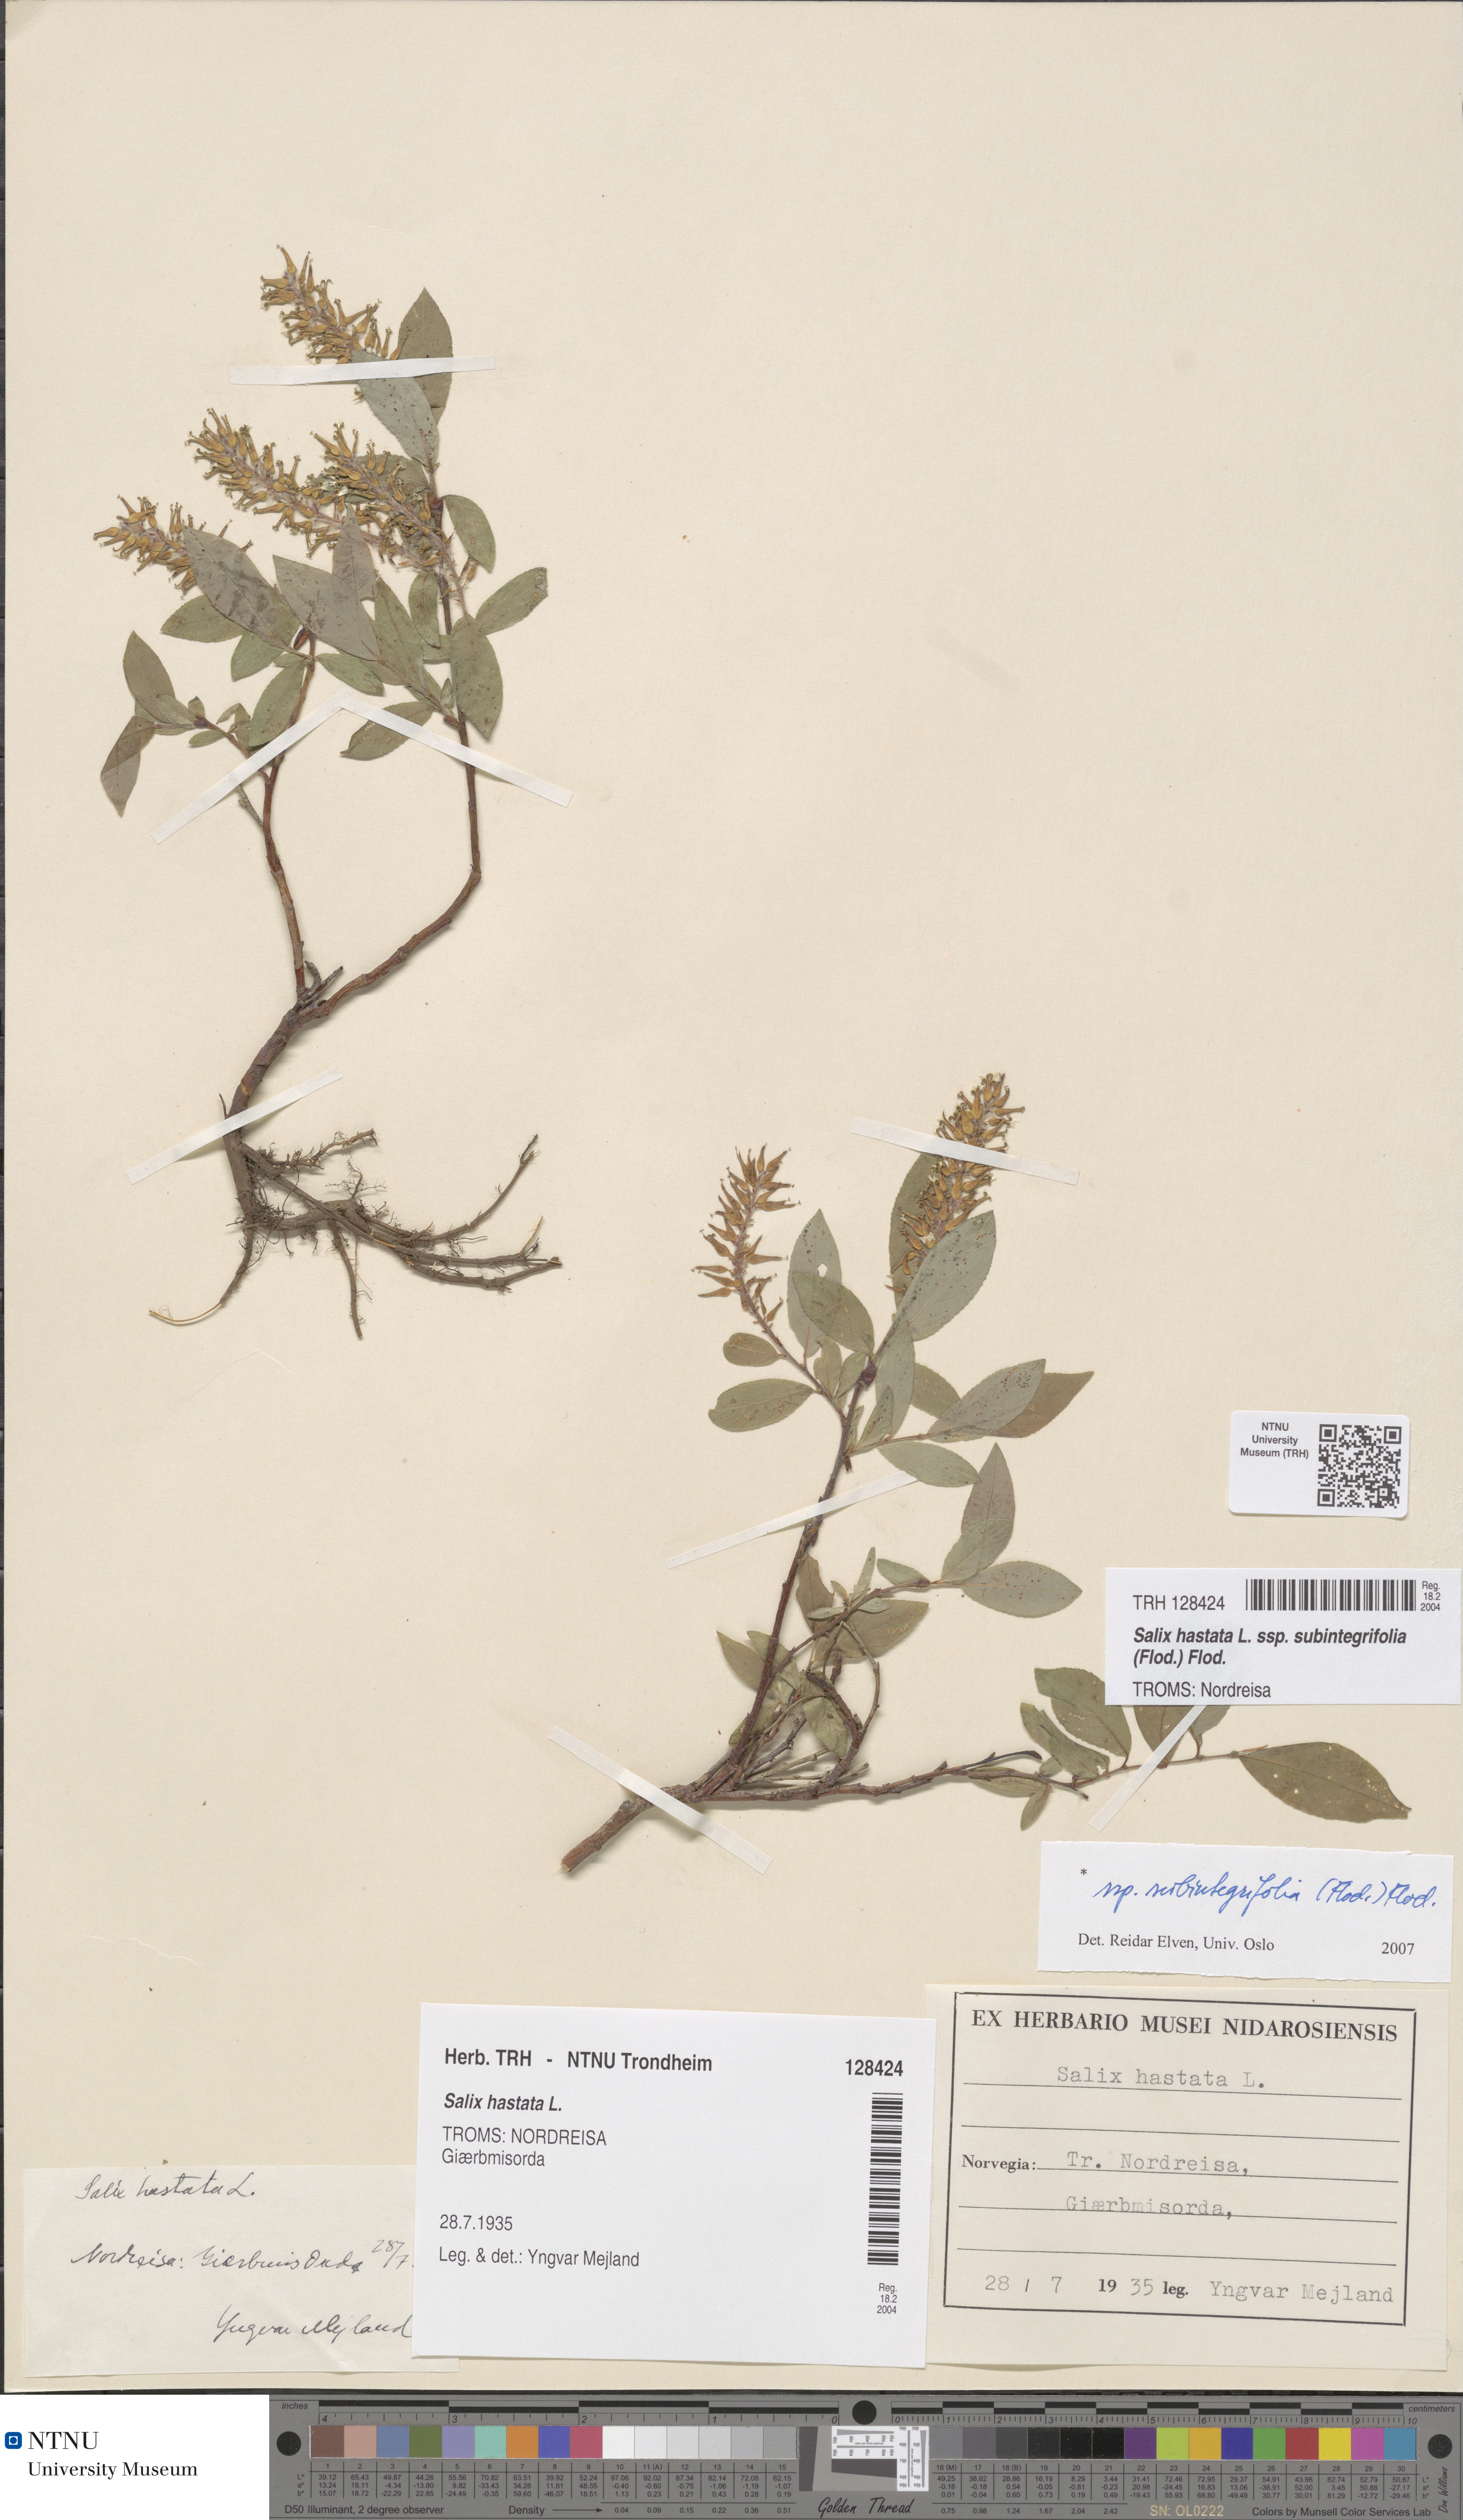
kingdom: Plantae
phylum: Tracheophyta
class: Magnoliopsida
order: Malpighiales
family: Salicaceae
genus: Salix
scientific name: Salix hastata
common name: Halberd willow
